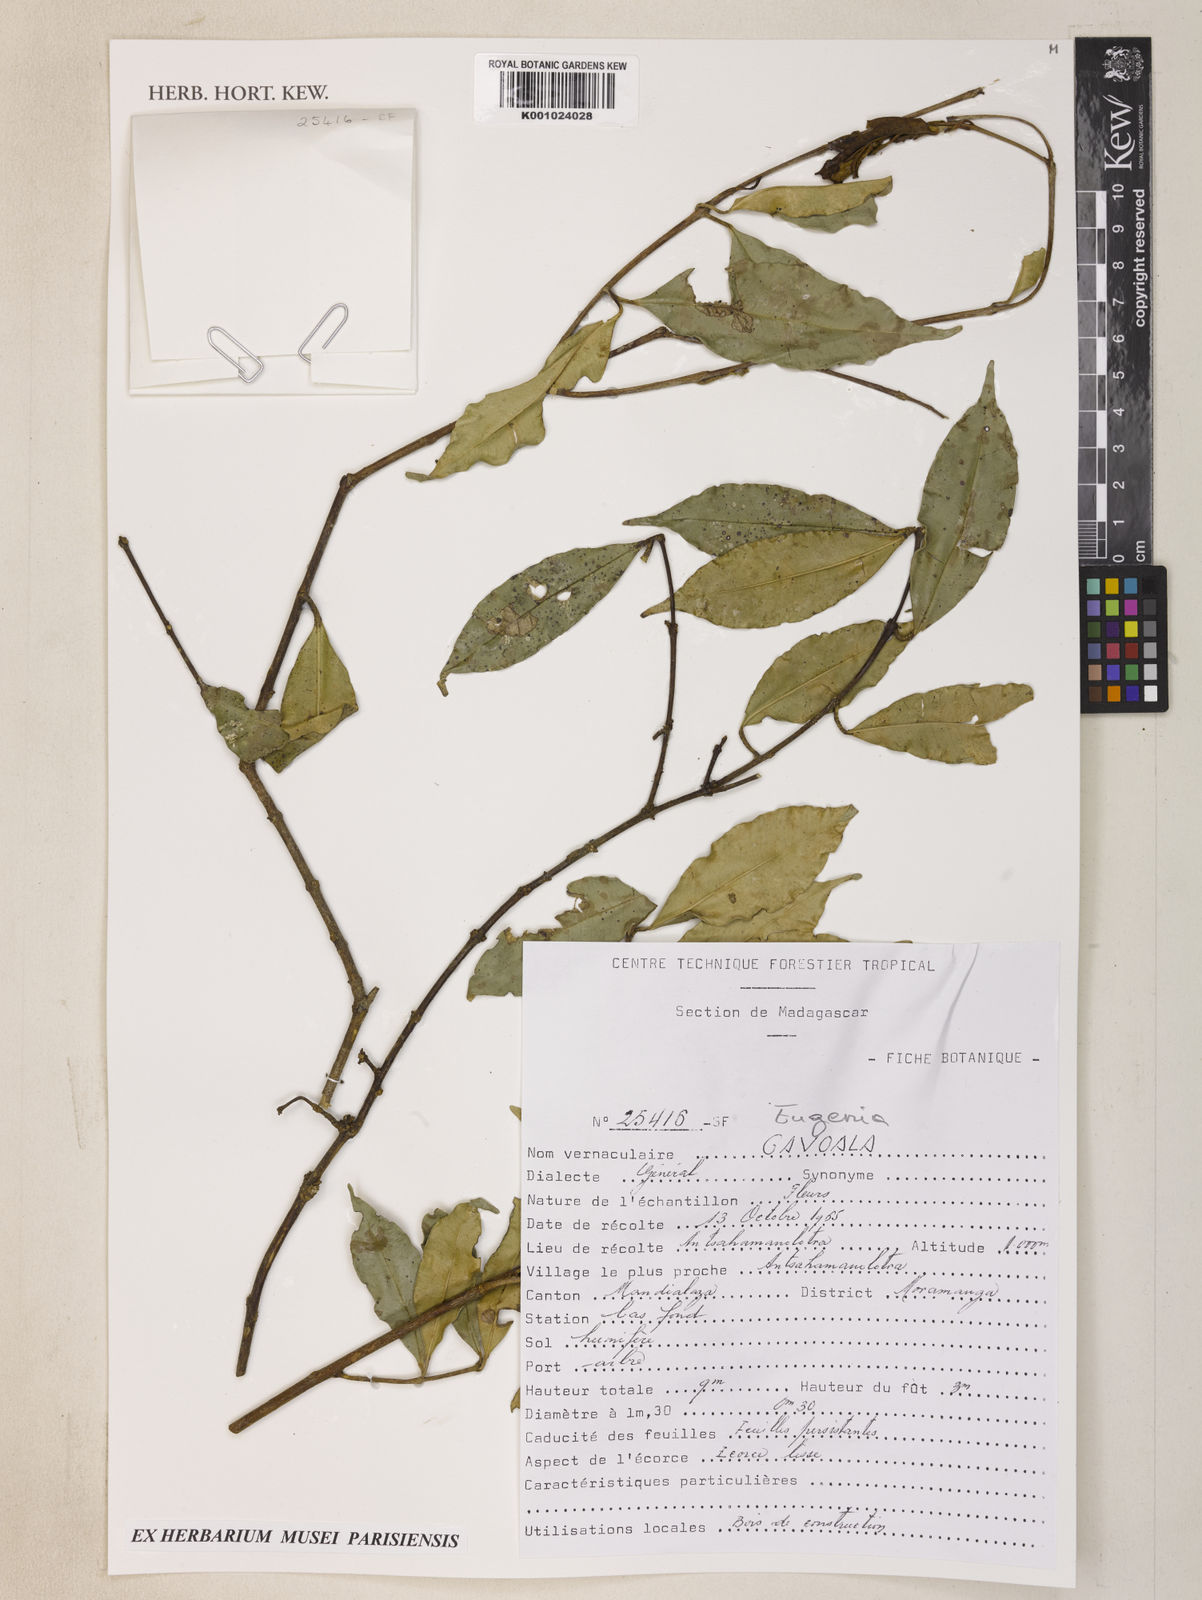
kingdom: Plantae
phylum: Tracheophyta
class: Magnoliopsida
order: Myrtales
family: Myrtaceae
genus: Eugenia
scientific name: Eugenia
